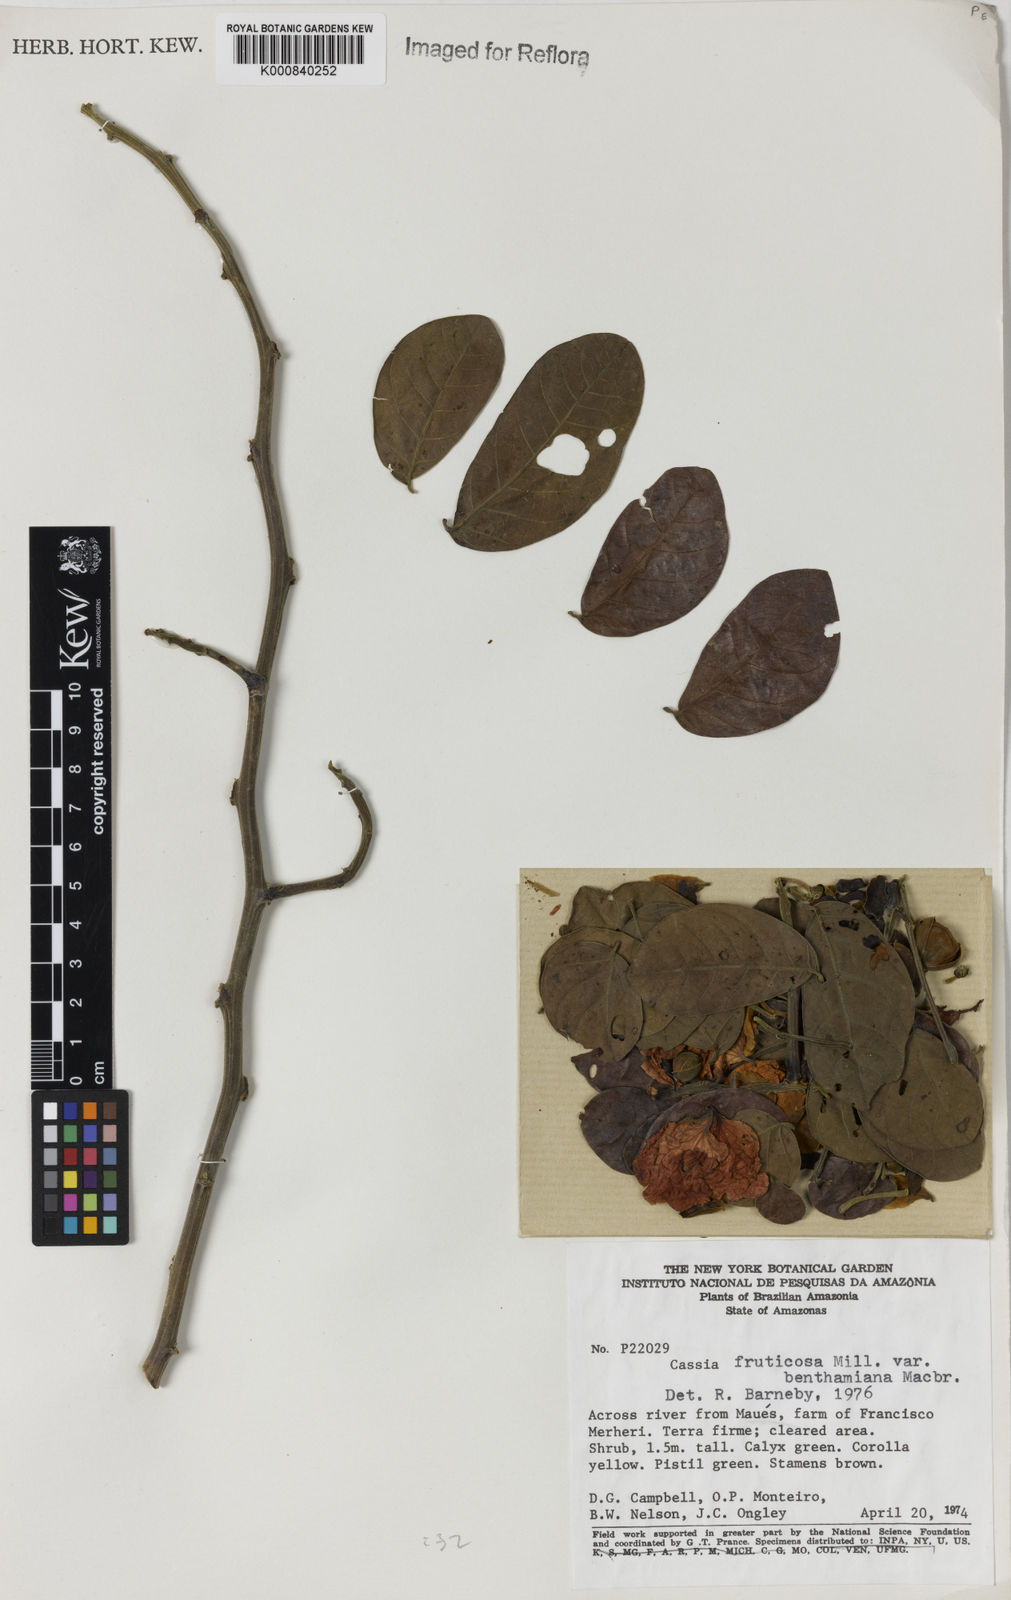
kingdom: Plantae
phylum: Tracheophyta
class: Magnoliopsida
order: Fabales
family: Fabaceae
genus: Senna
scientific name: Senna bacillaris
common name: West indian showertree
